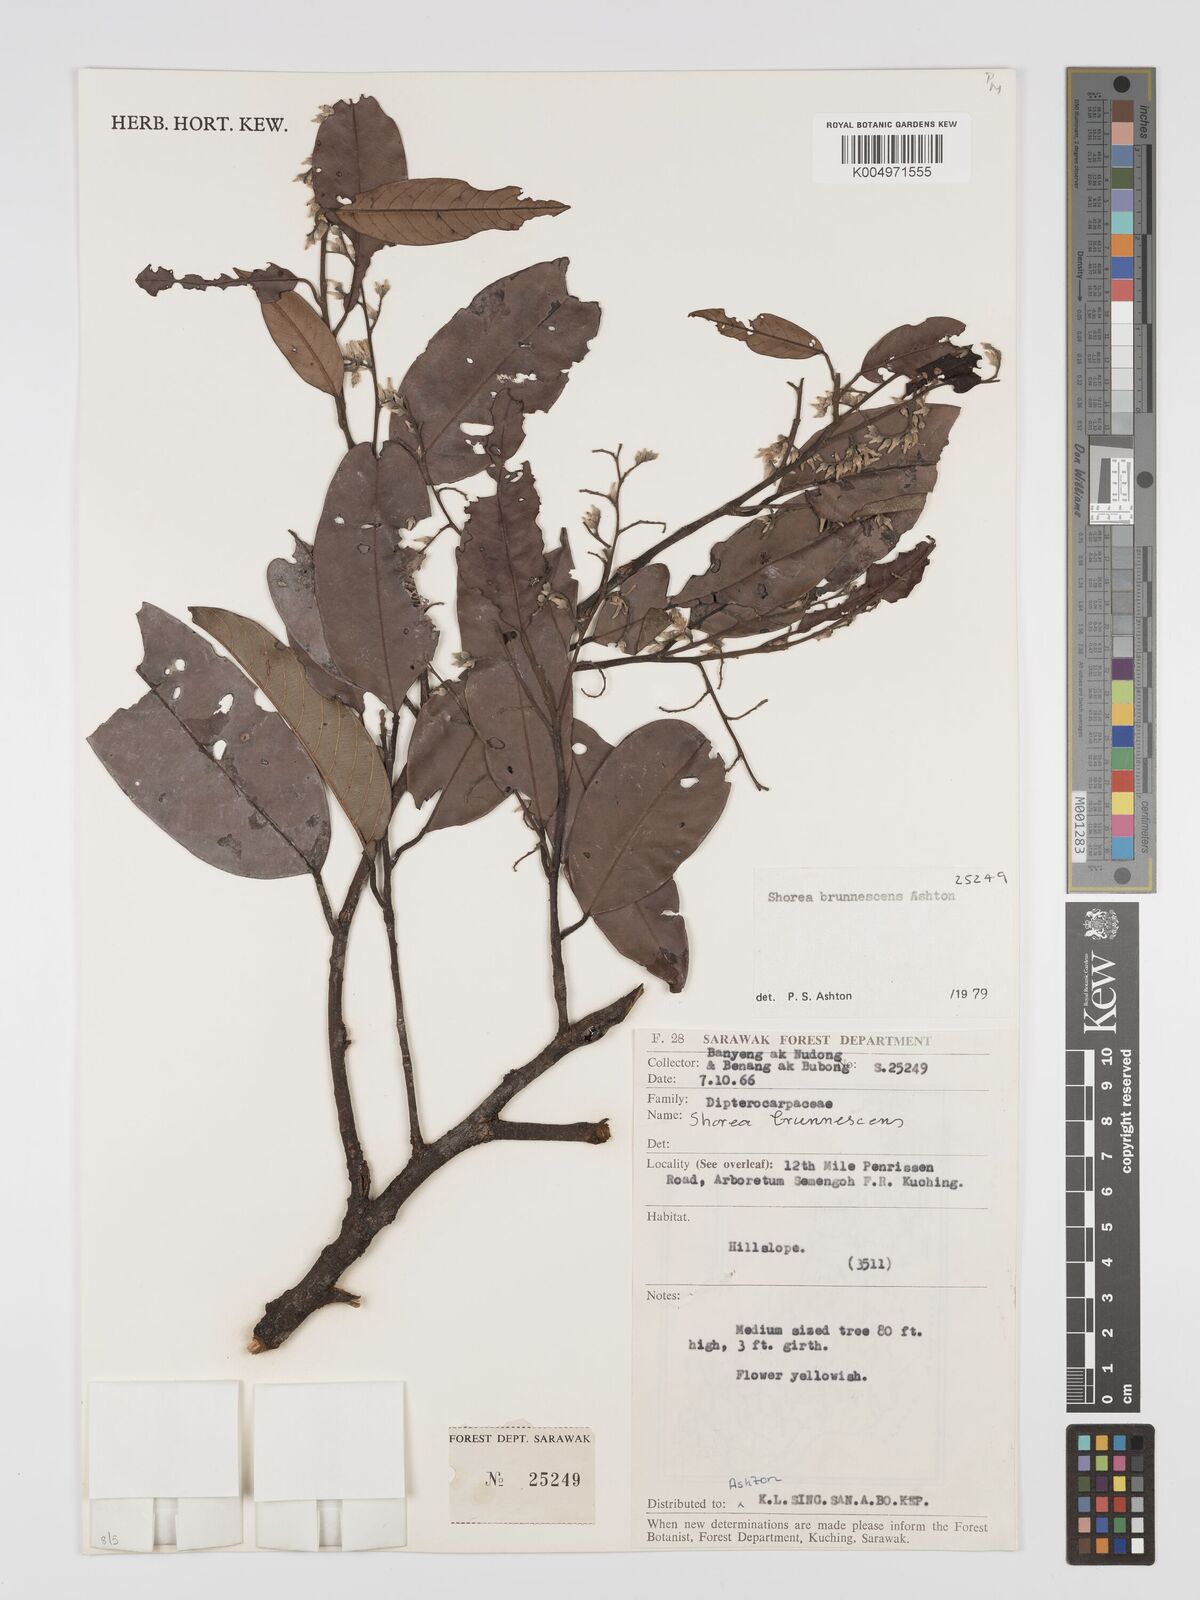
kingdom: Plantae
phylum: Tracheophyta
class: Magnoliopsida
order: Malvales
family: Dipterocarpaceae
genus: Shorea
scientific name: Shorea brunnescens
